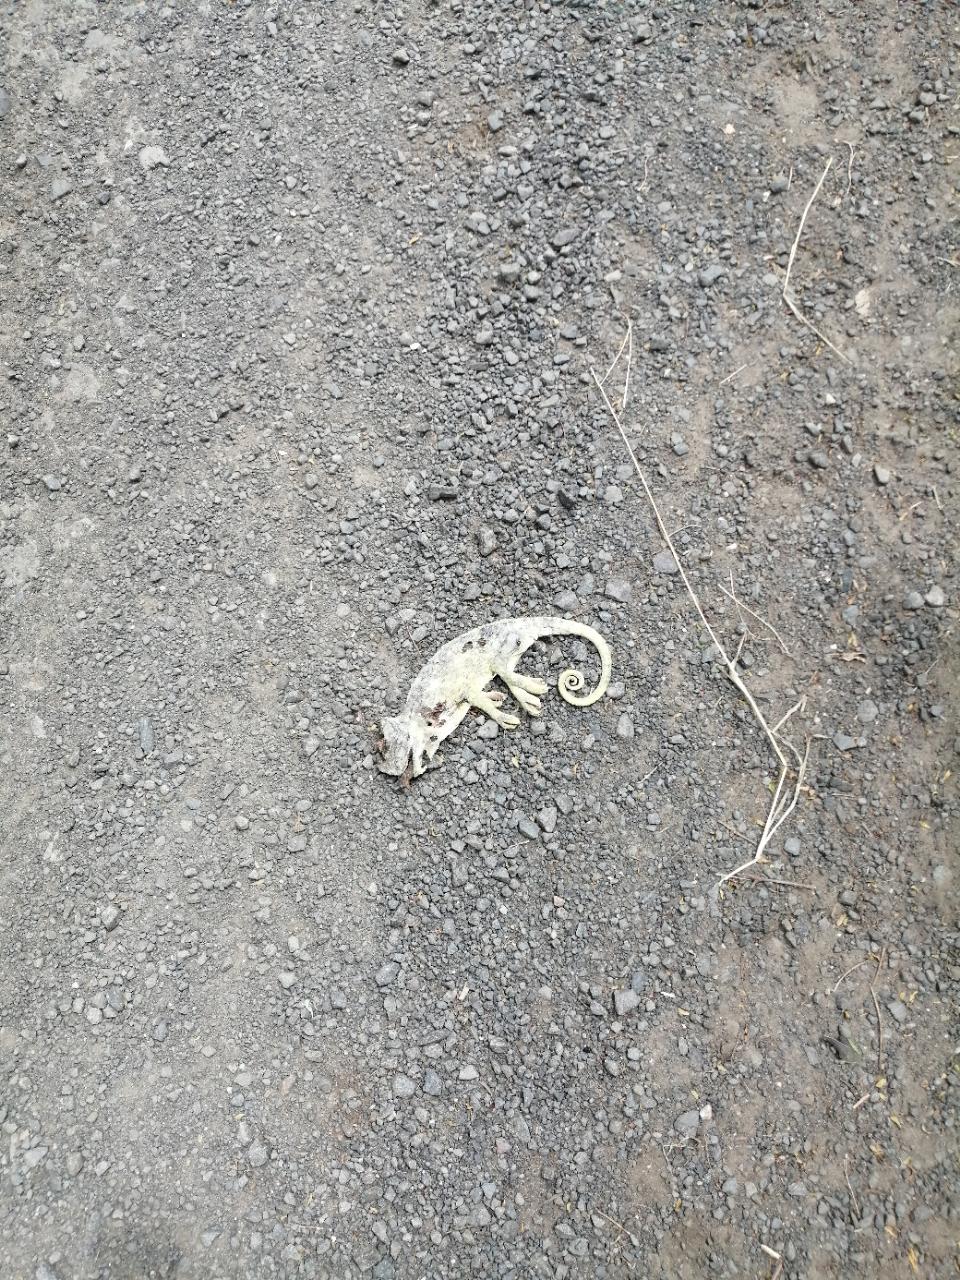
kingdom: Animalia
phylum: Chordata
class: Squamata
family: Chamaeleonidae
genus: Chamaeleo
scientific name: Chamaeleo zeylanicus
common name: Indian chameleon
